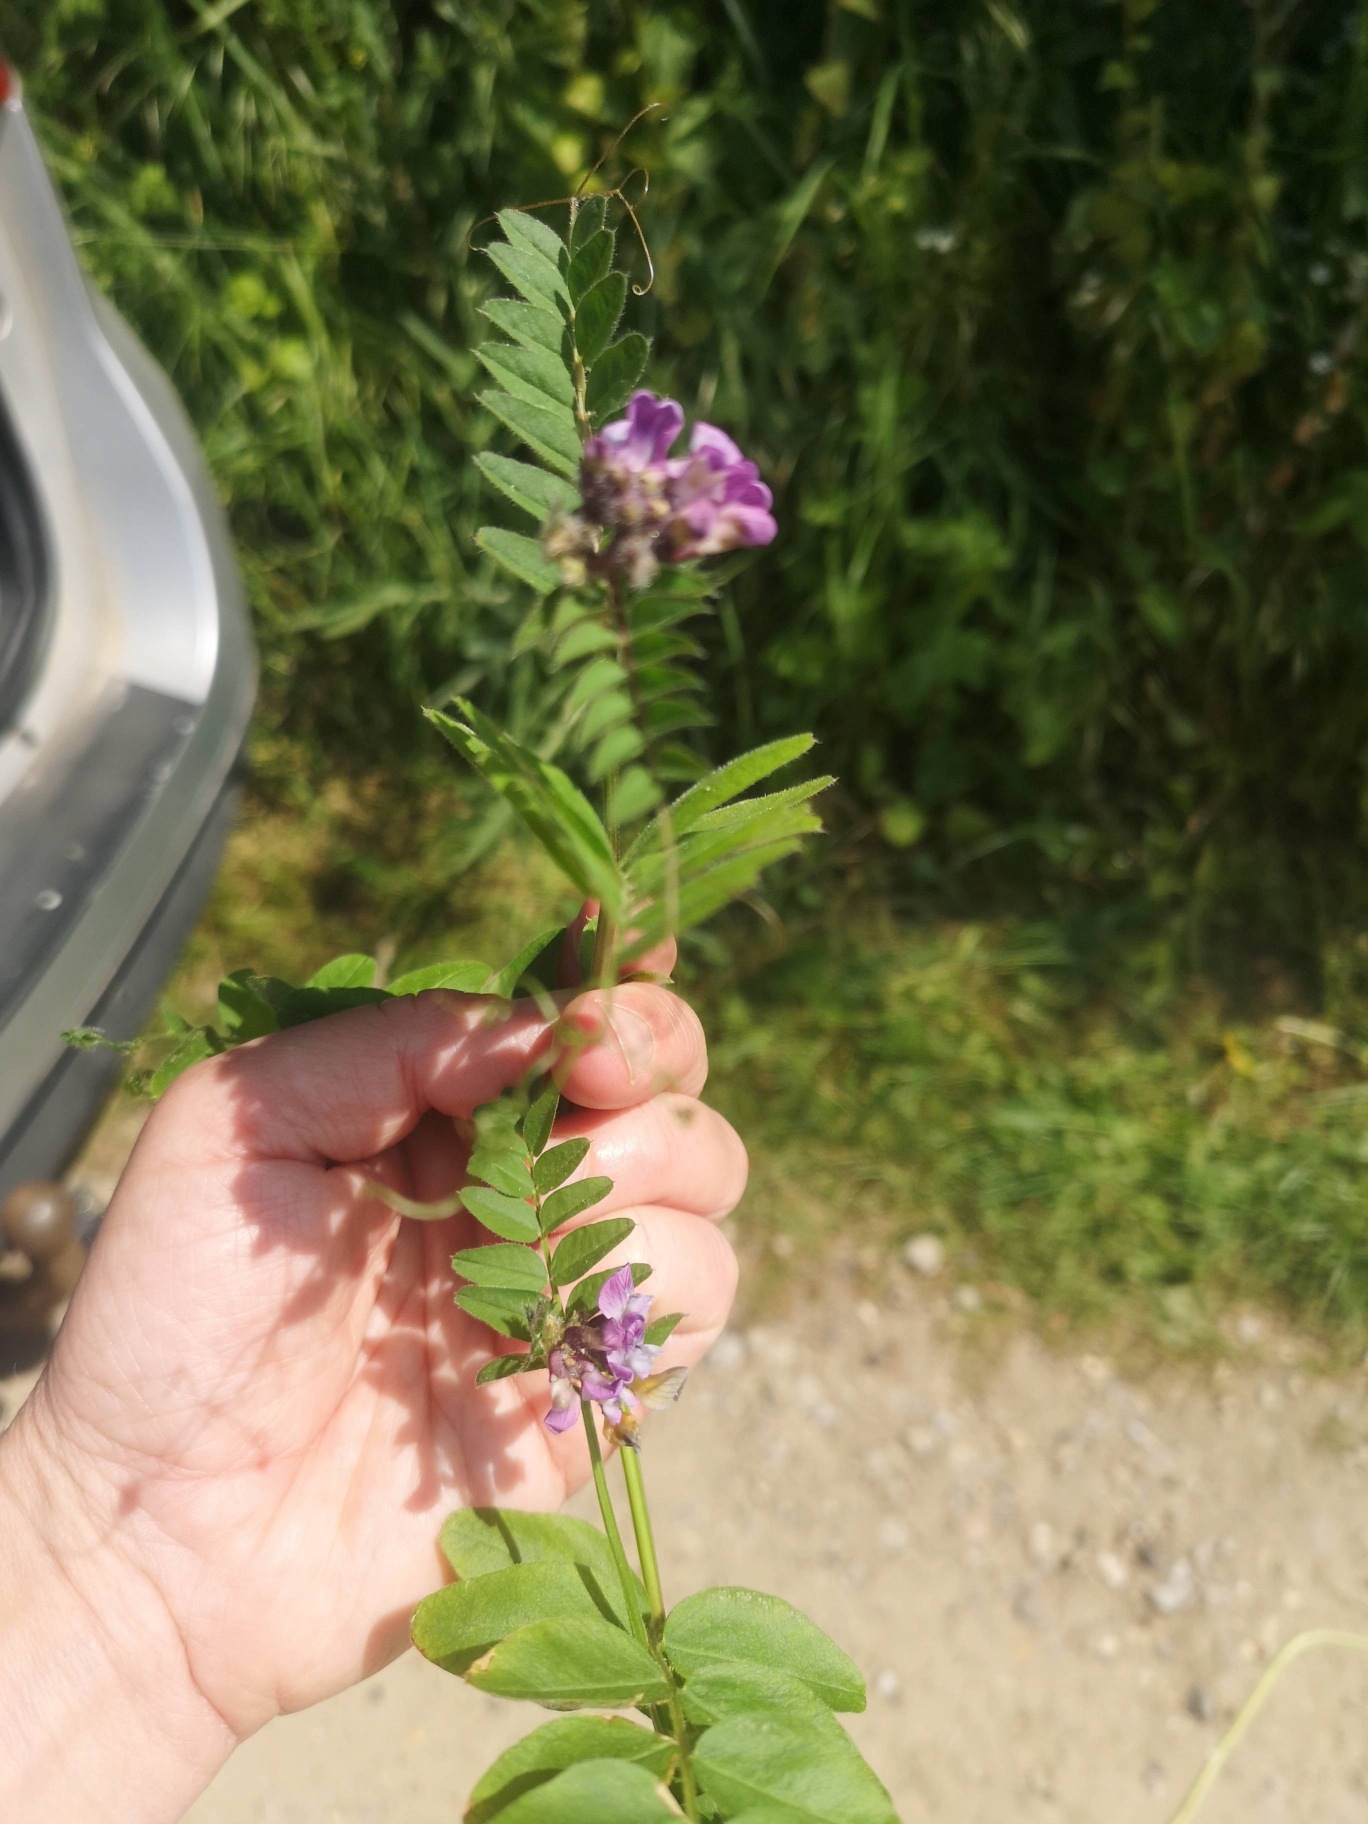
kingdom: Plantae
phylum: Tracheophyta
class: Magnoliopsida
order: Fabales
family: Fabaceae
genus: Vicia
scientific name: Vicia sepium
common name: Gærde-vikke
